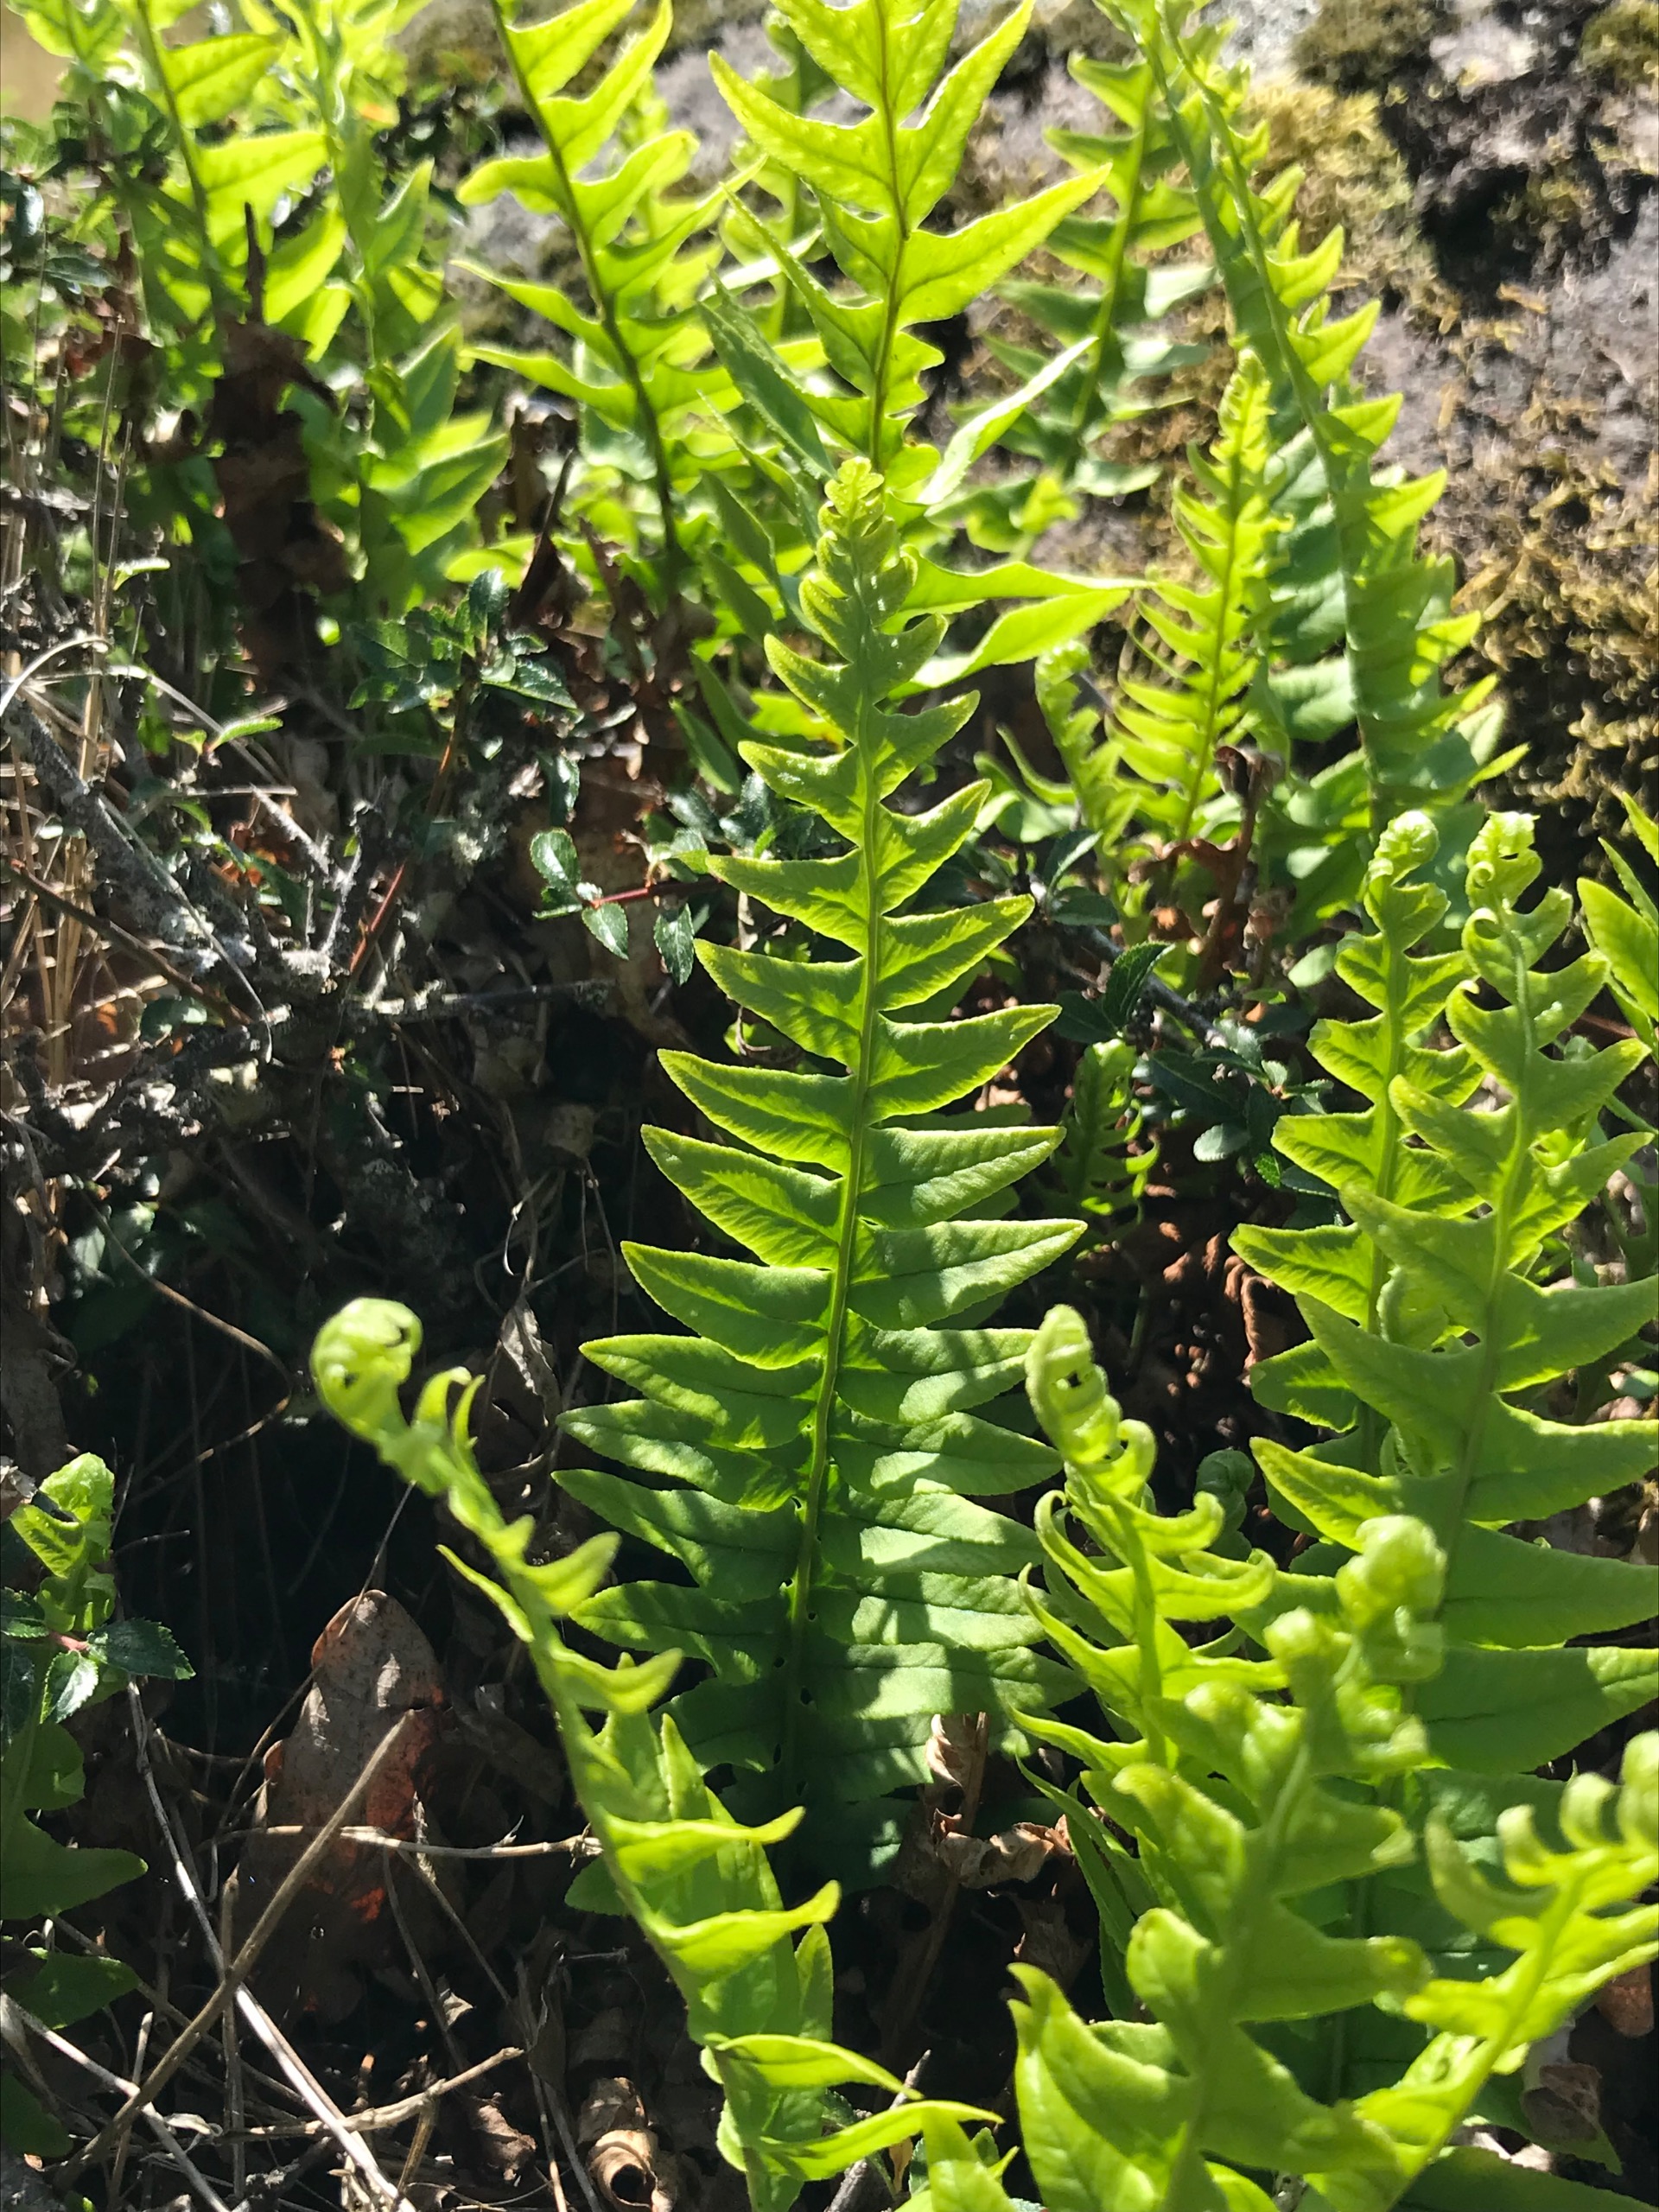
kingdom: Plantae
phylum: Tracheophyta
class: Polypodiopsida
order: Polypodiales
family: Polypodiaceae
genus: Polypodium
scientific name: Polypodium vulgare
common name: Almindelig engelsød
